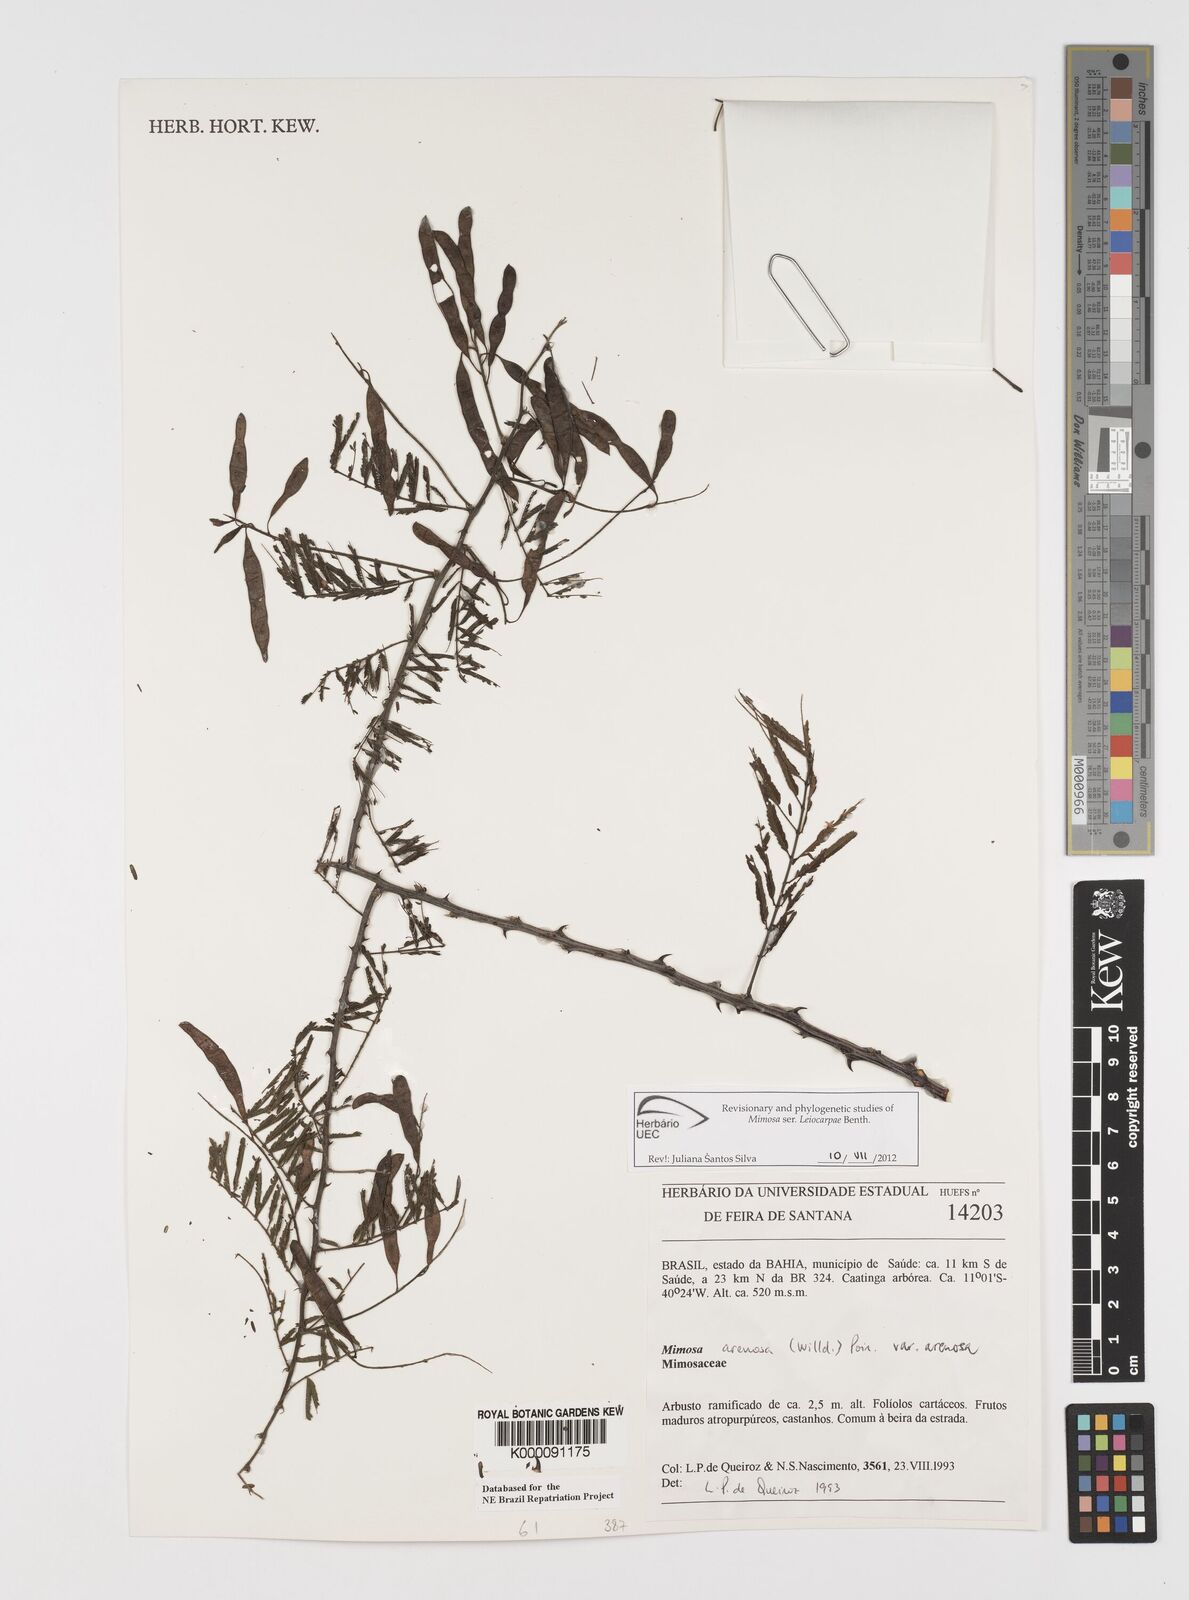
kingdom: Plantae
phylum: Tracheophyta
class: Magnoliopsida
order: Fabales
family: Fabaceae
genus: Mimosa
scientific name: Mimosa arenosa
